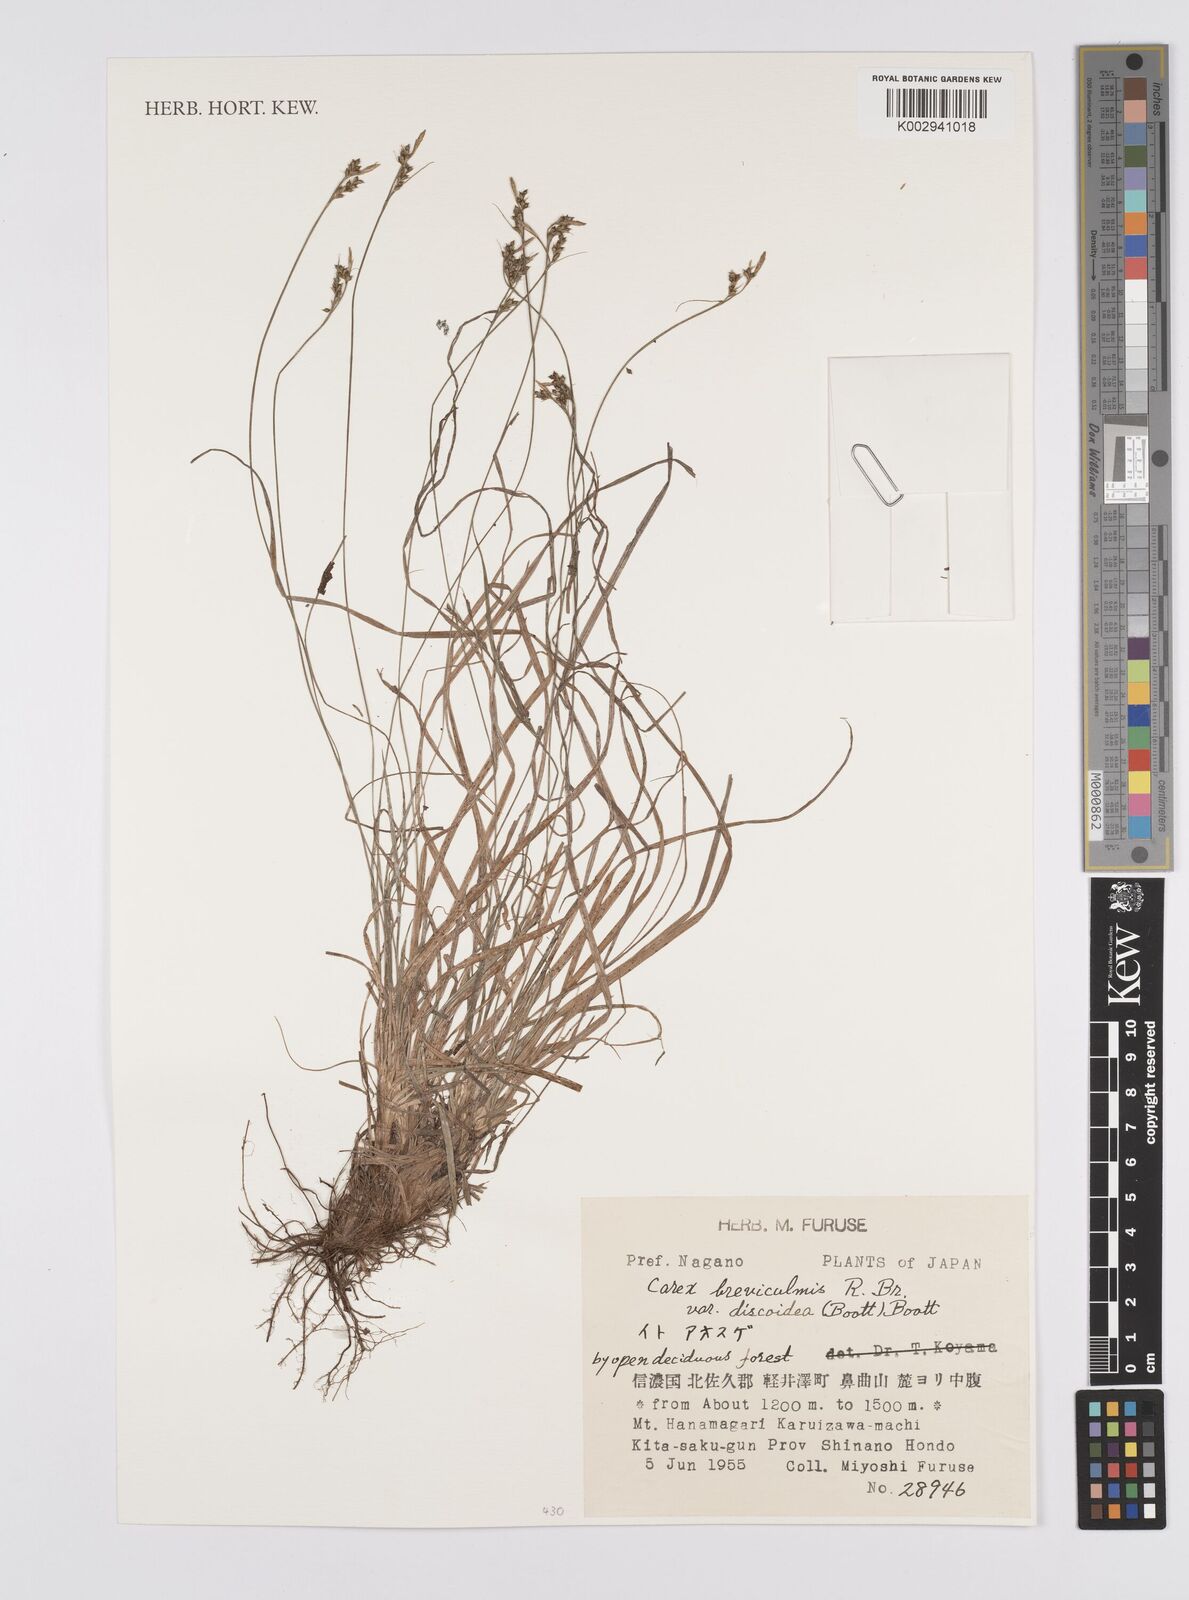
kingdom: Plantae
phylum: Tracheophyta
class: Liliopsida
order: Poales
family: Cyperaceae
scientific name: Cyperaceae
